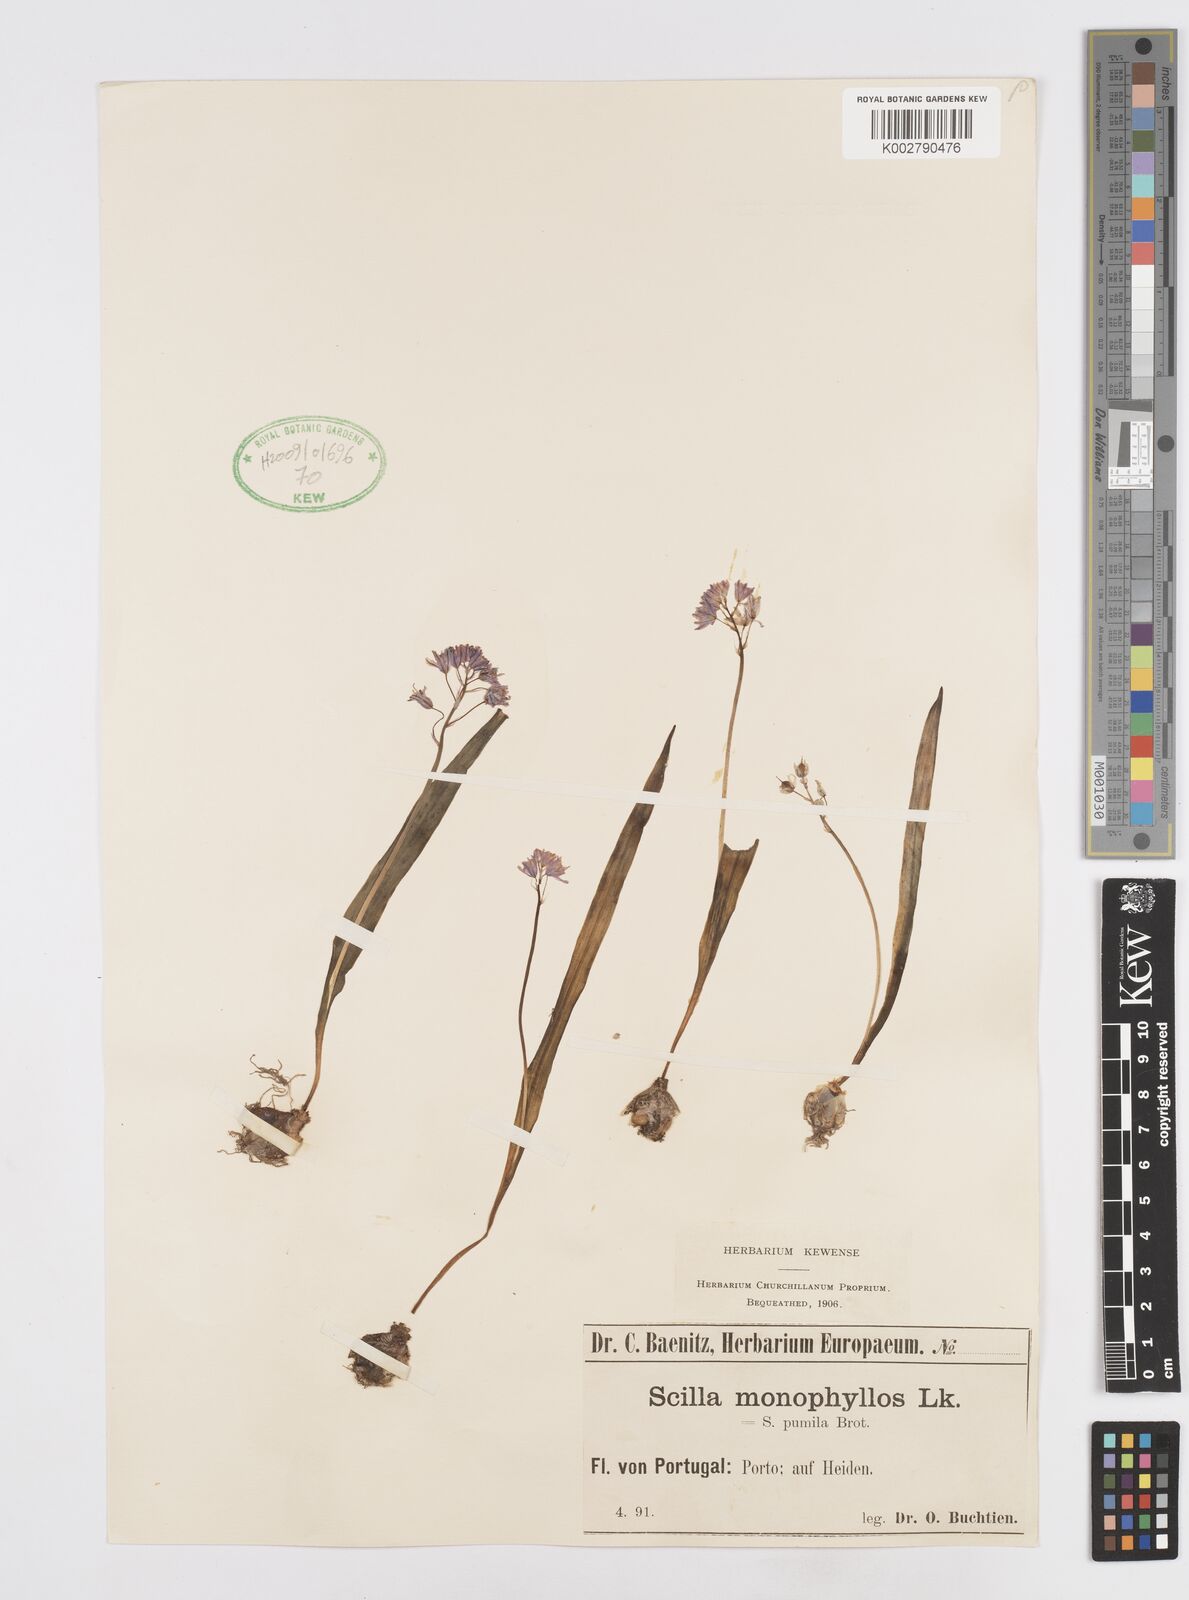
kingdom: Plantae
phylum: Tracheophyta
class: Liliopsida
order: Asparagales
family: Asparagaceae
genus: Scilla
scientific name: Scilla monophyllos
